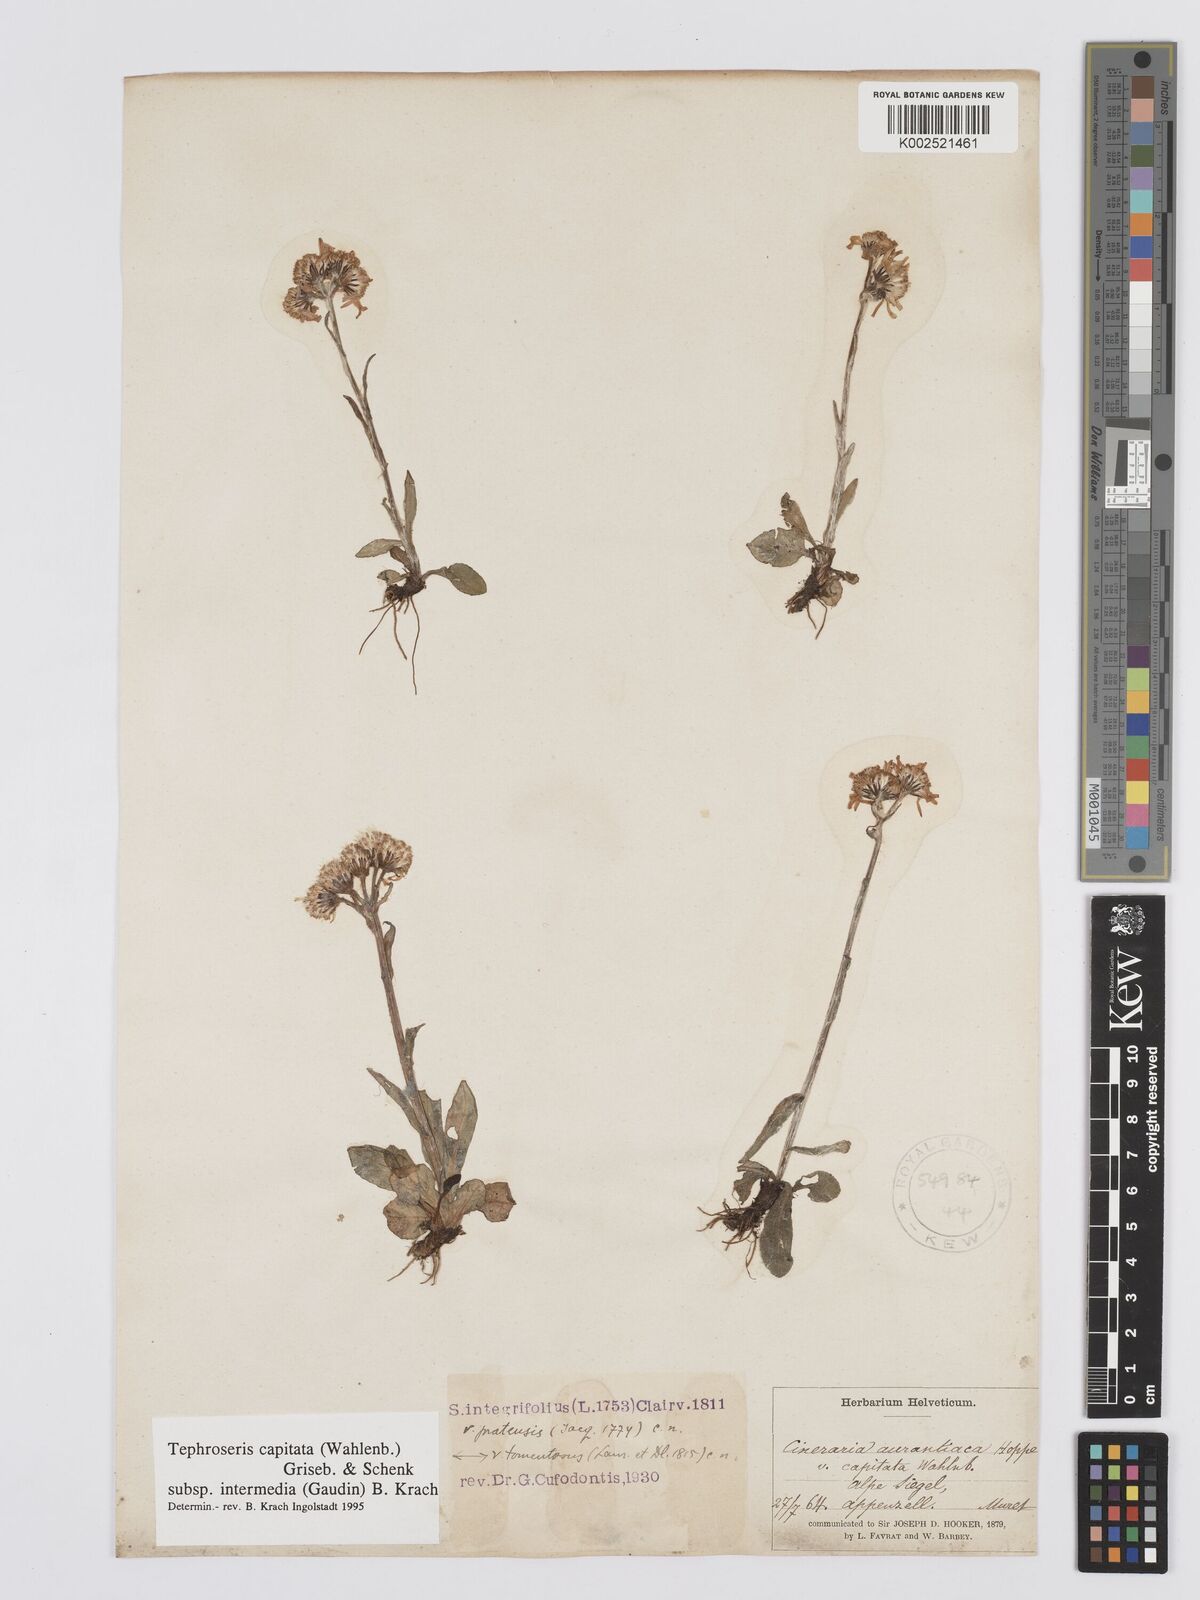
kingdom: Plantae
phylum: Tracheophyta
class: Magnoliopsida
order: Asterales
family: Asteraceae
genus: Tephroseris
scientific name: Tephroseris integrifolia
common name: Field fleawort
